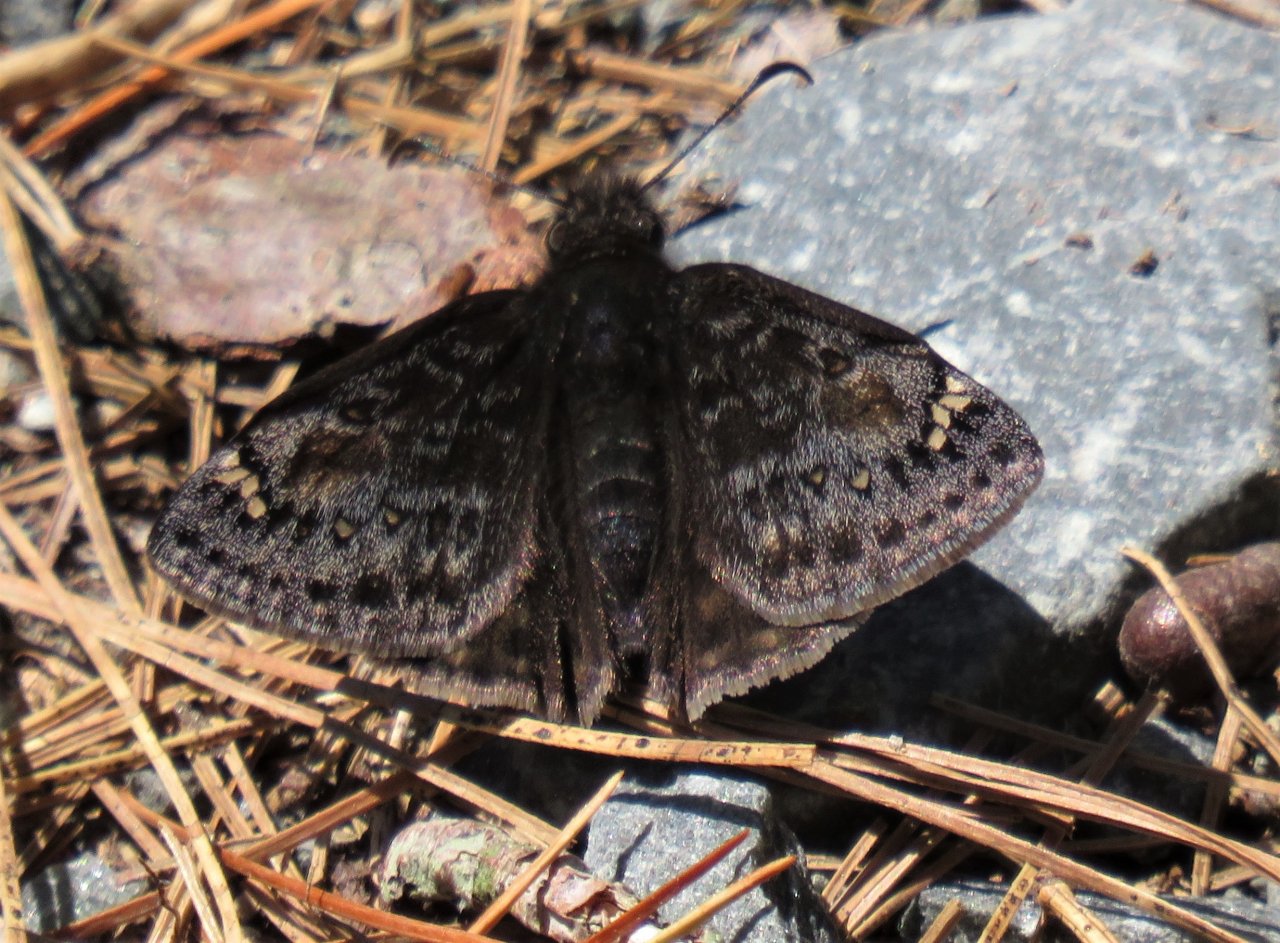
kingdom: Animalia
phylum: Arthropoda
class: Insecta
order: Lepidoptera
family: Hesperiidae
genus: Gesta
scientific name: Gesta
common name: Juvenal's Duskywing
